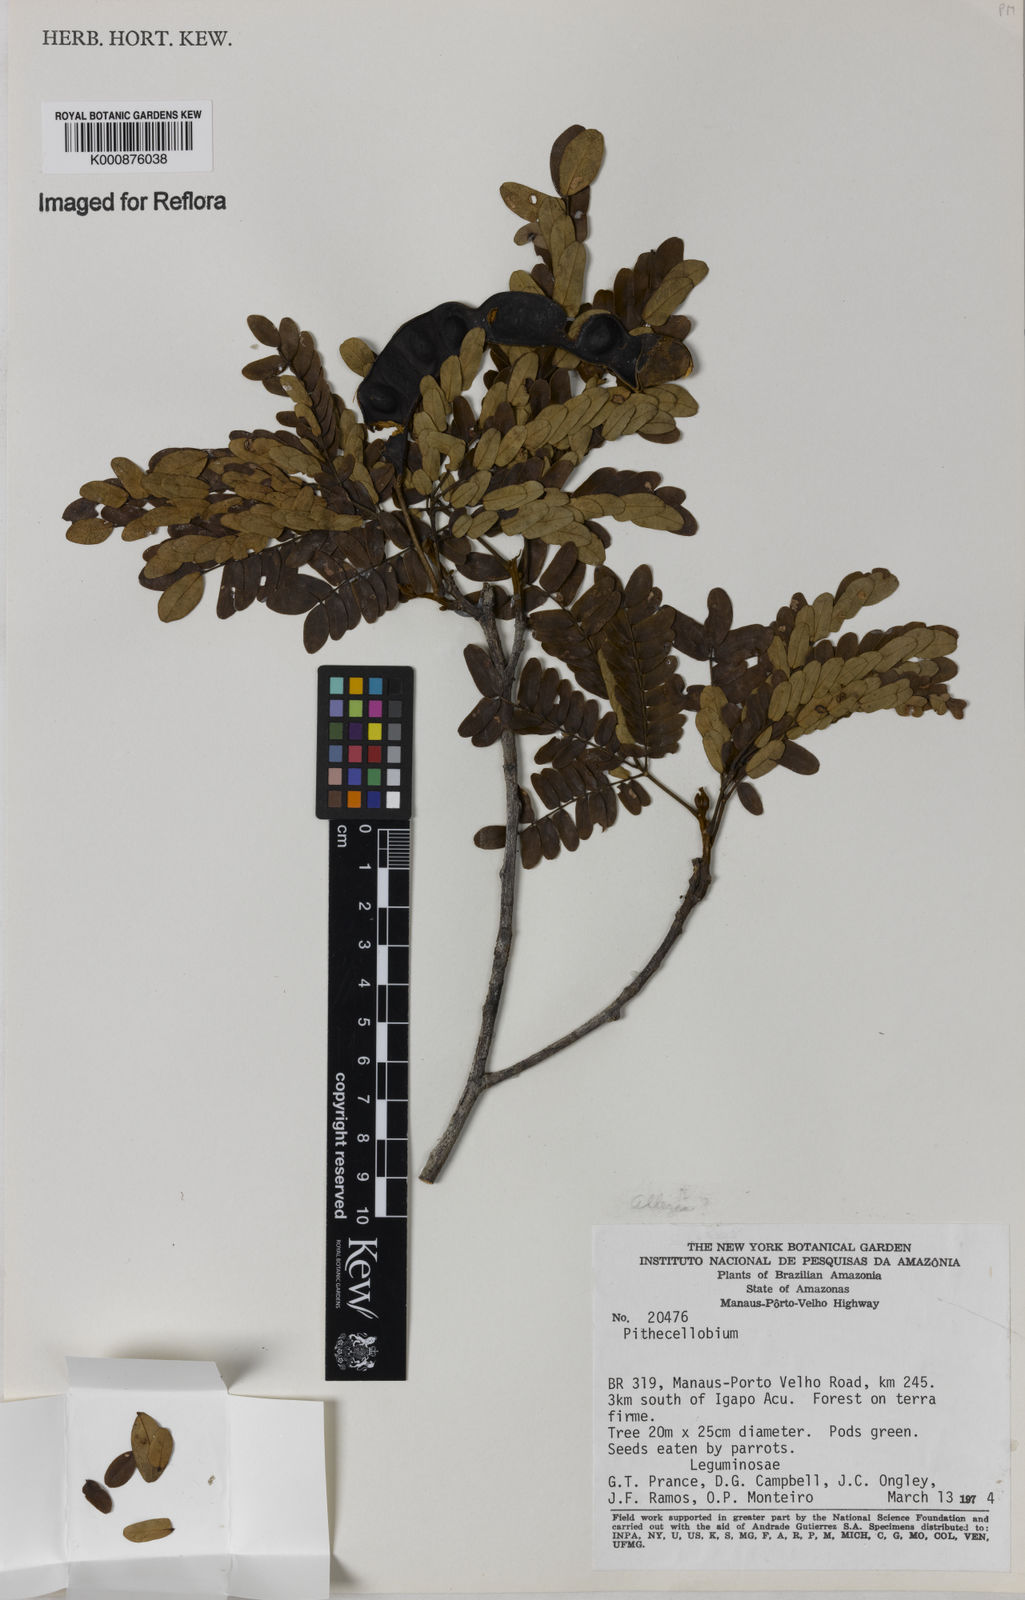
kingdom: Plantae
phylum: Tracheophyta
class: Magnoliopsida
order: Fabales
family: Fabaceae
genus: Albizia
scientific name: Albizia
